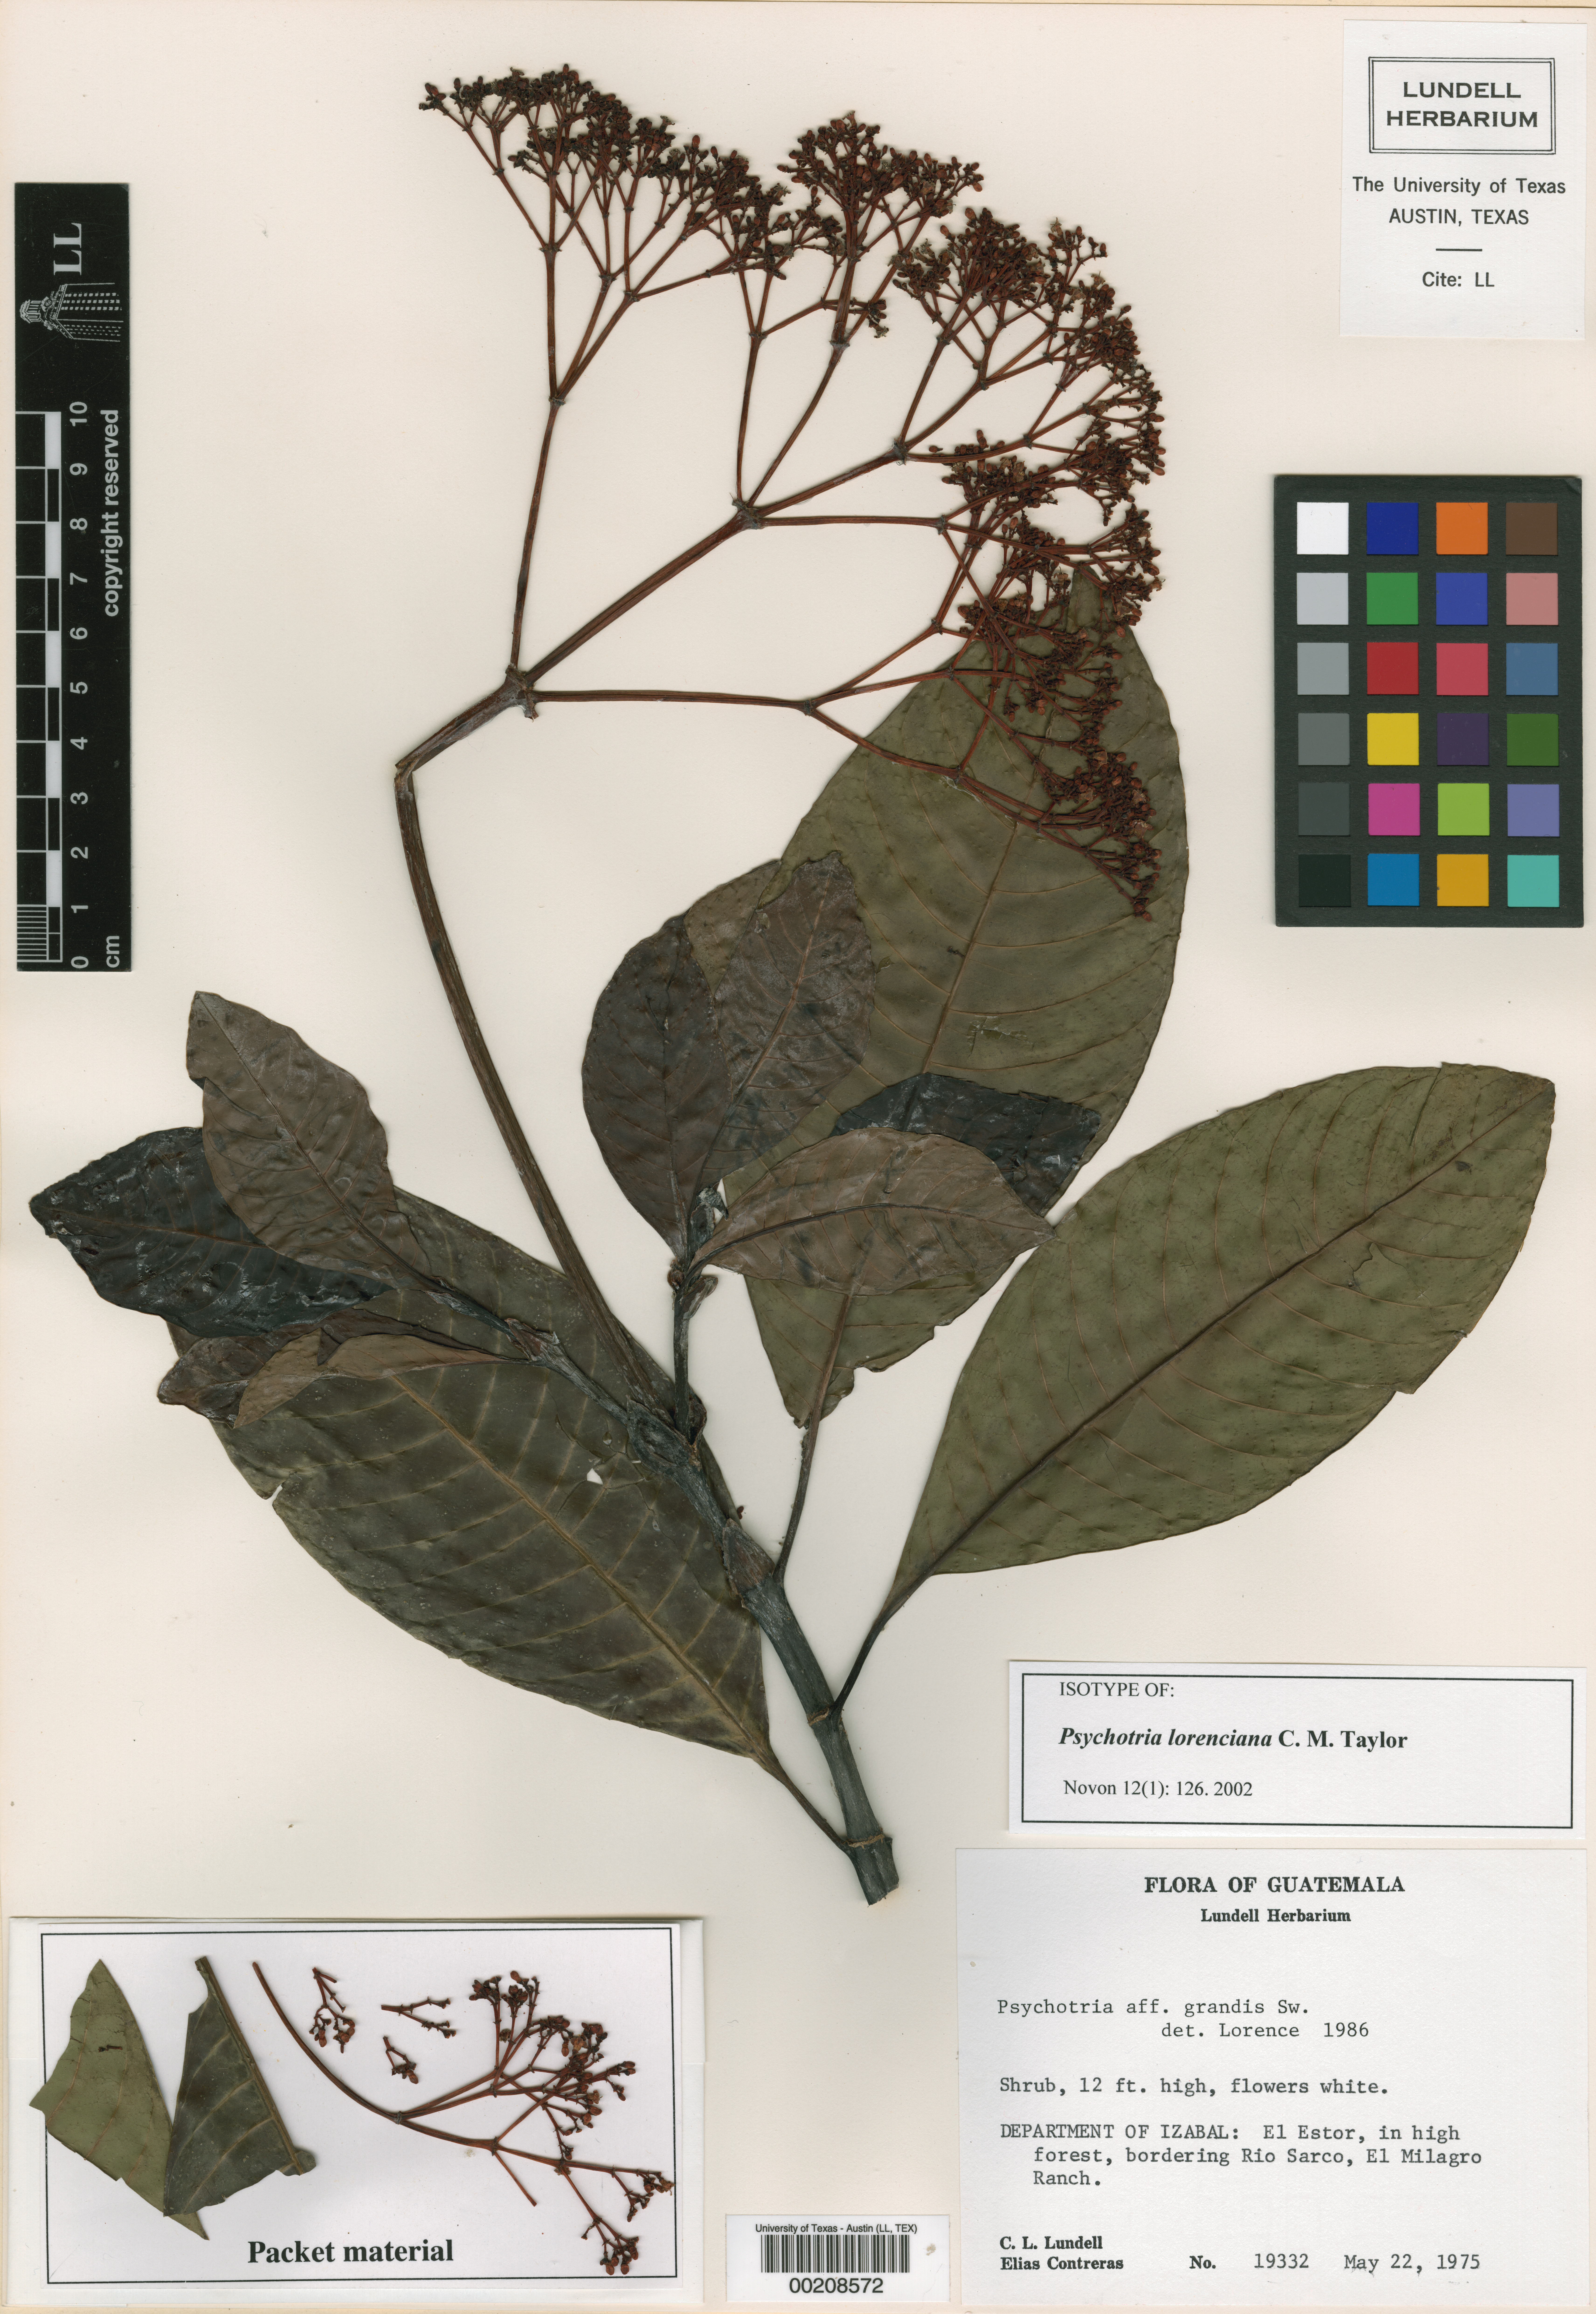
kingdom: Plantae
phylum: Tracheophyta
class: Magnoliopsida
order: Malpighiales
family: Hypericaceae
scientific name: Hypericaceae
